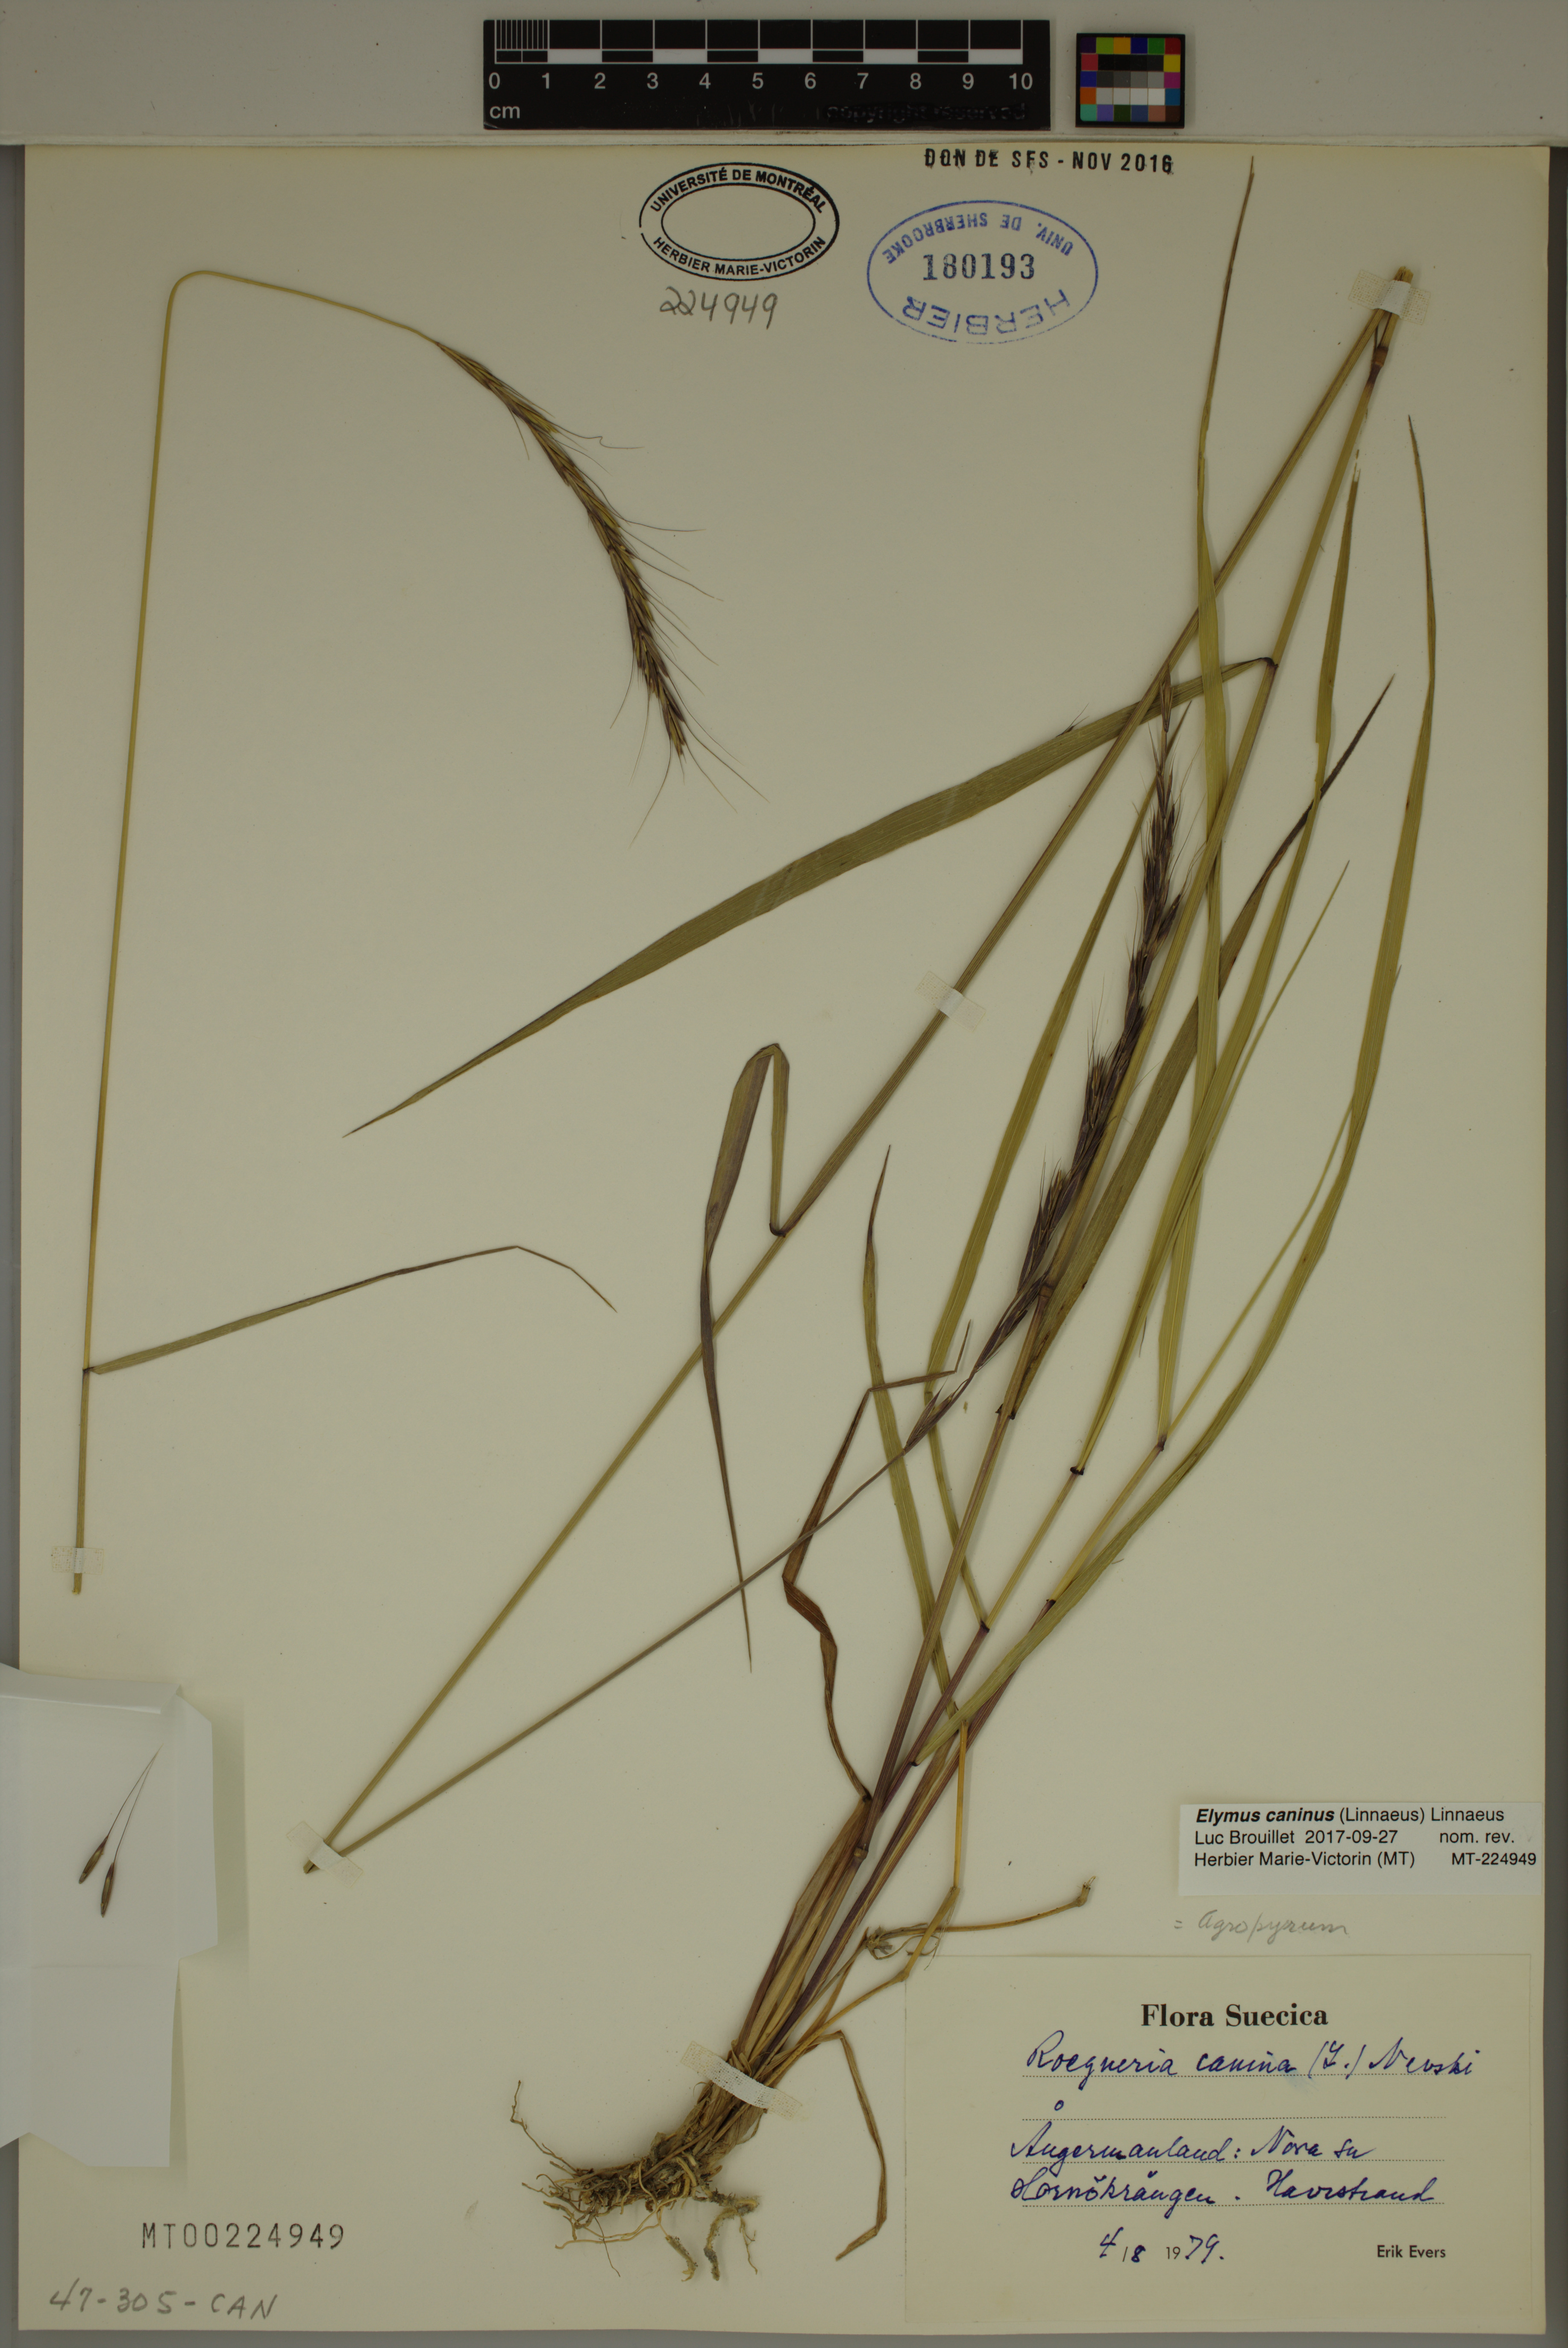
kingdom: Plantae
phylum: Tracheophyta
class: Liliopsida
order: Poales
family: Poaceae
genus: Elymus
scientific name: Elymus caninus
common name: Bearded couch
